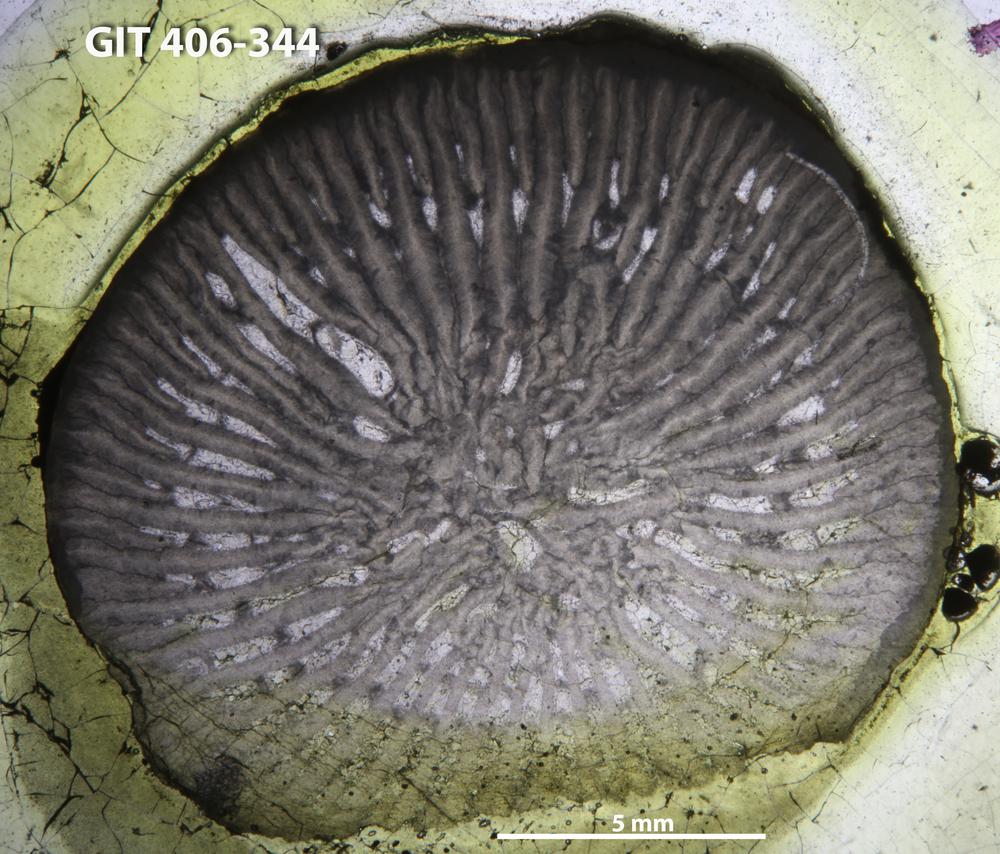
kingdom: Animalia
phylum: Cnidaria
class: Anthozoa
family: Streptelasmatidae
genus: Grewingkia
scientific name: Grewingkia
